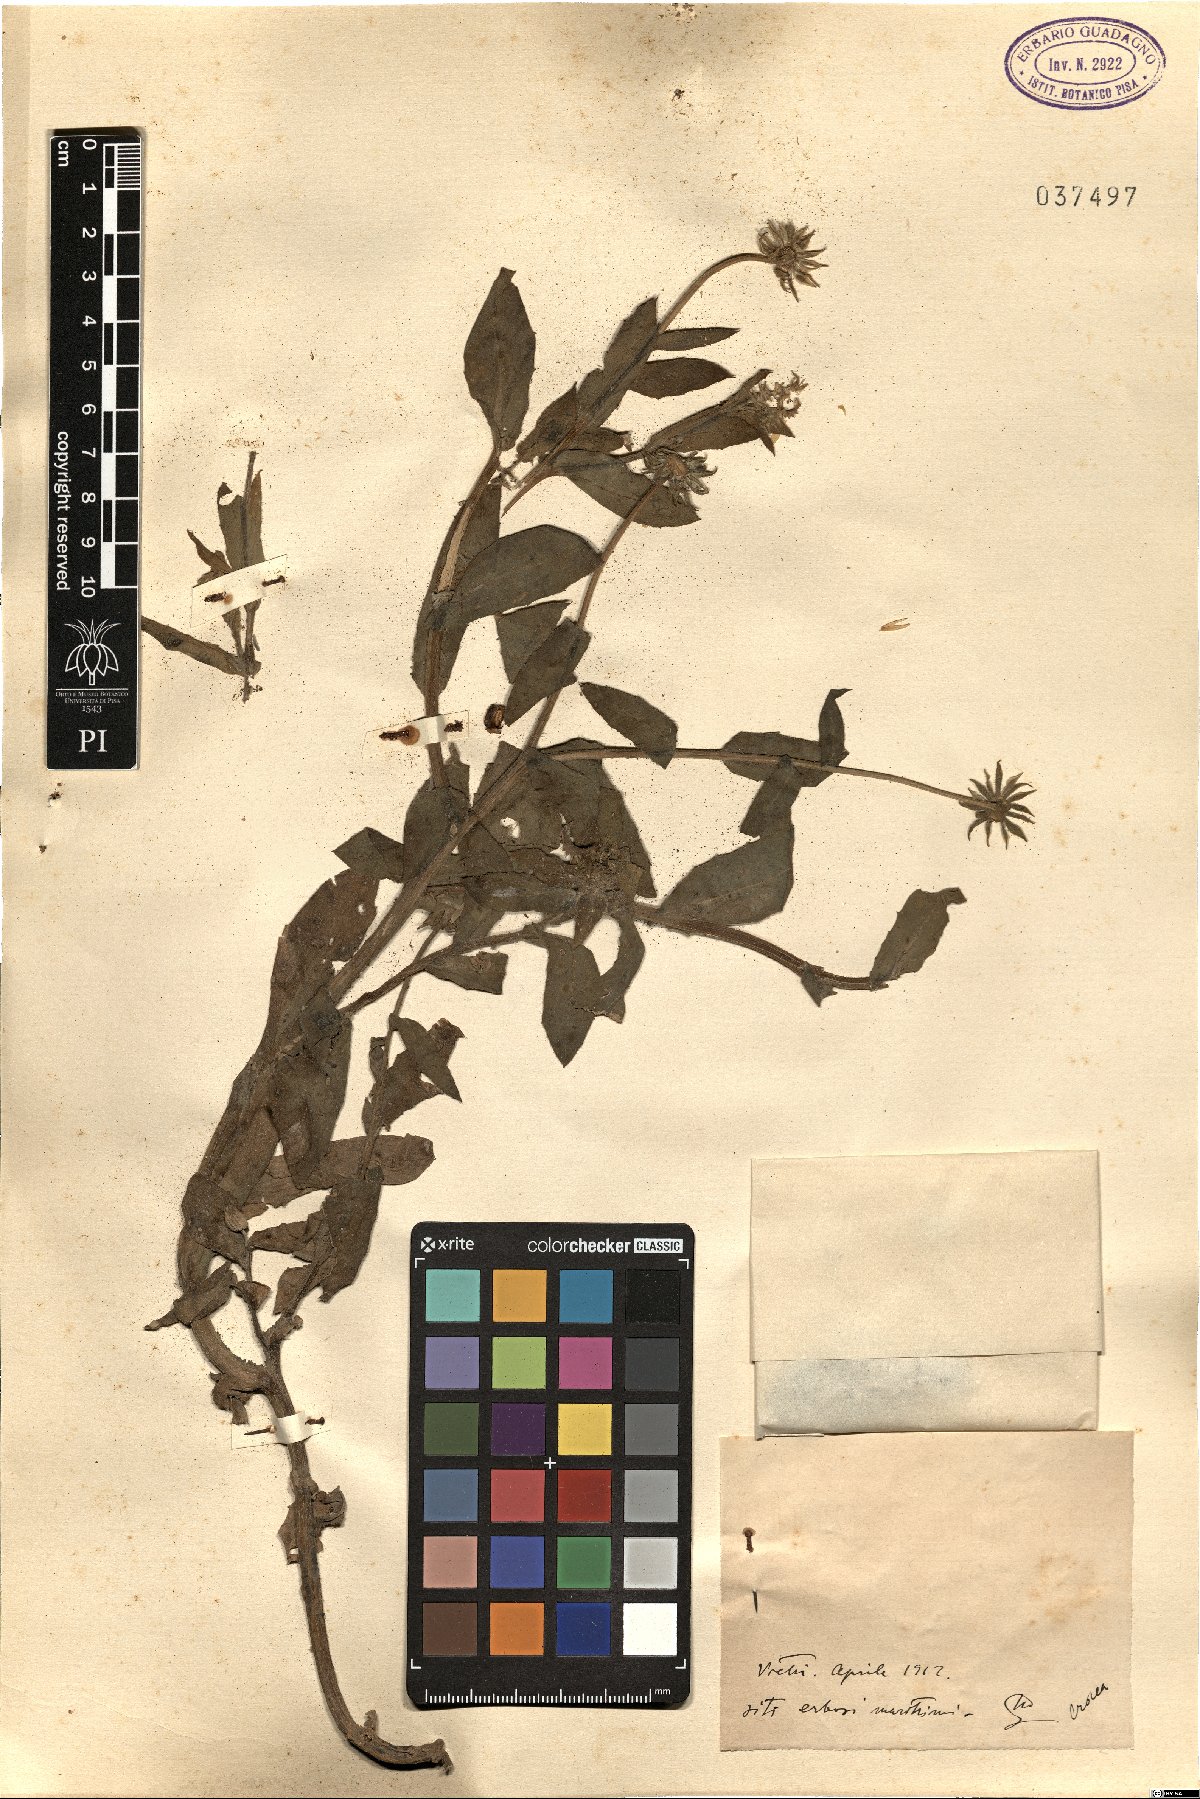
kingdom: Plantae
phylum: Tracheophyta
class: Magnoliopsida
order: Asterales
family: Asteraceae
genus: Calendula
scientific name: Calendula
